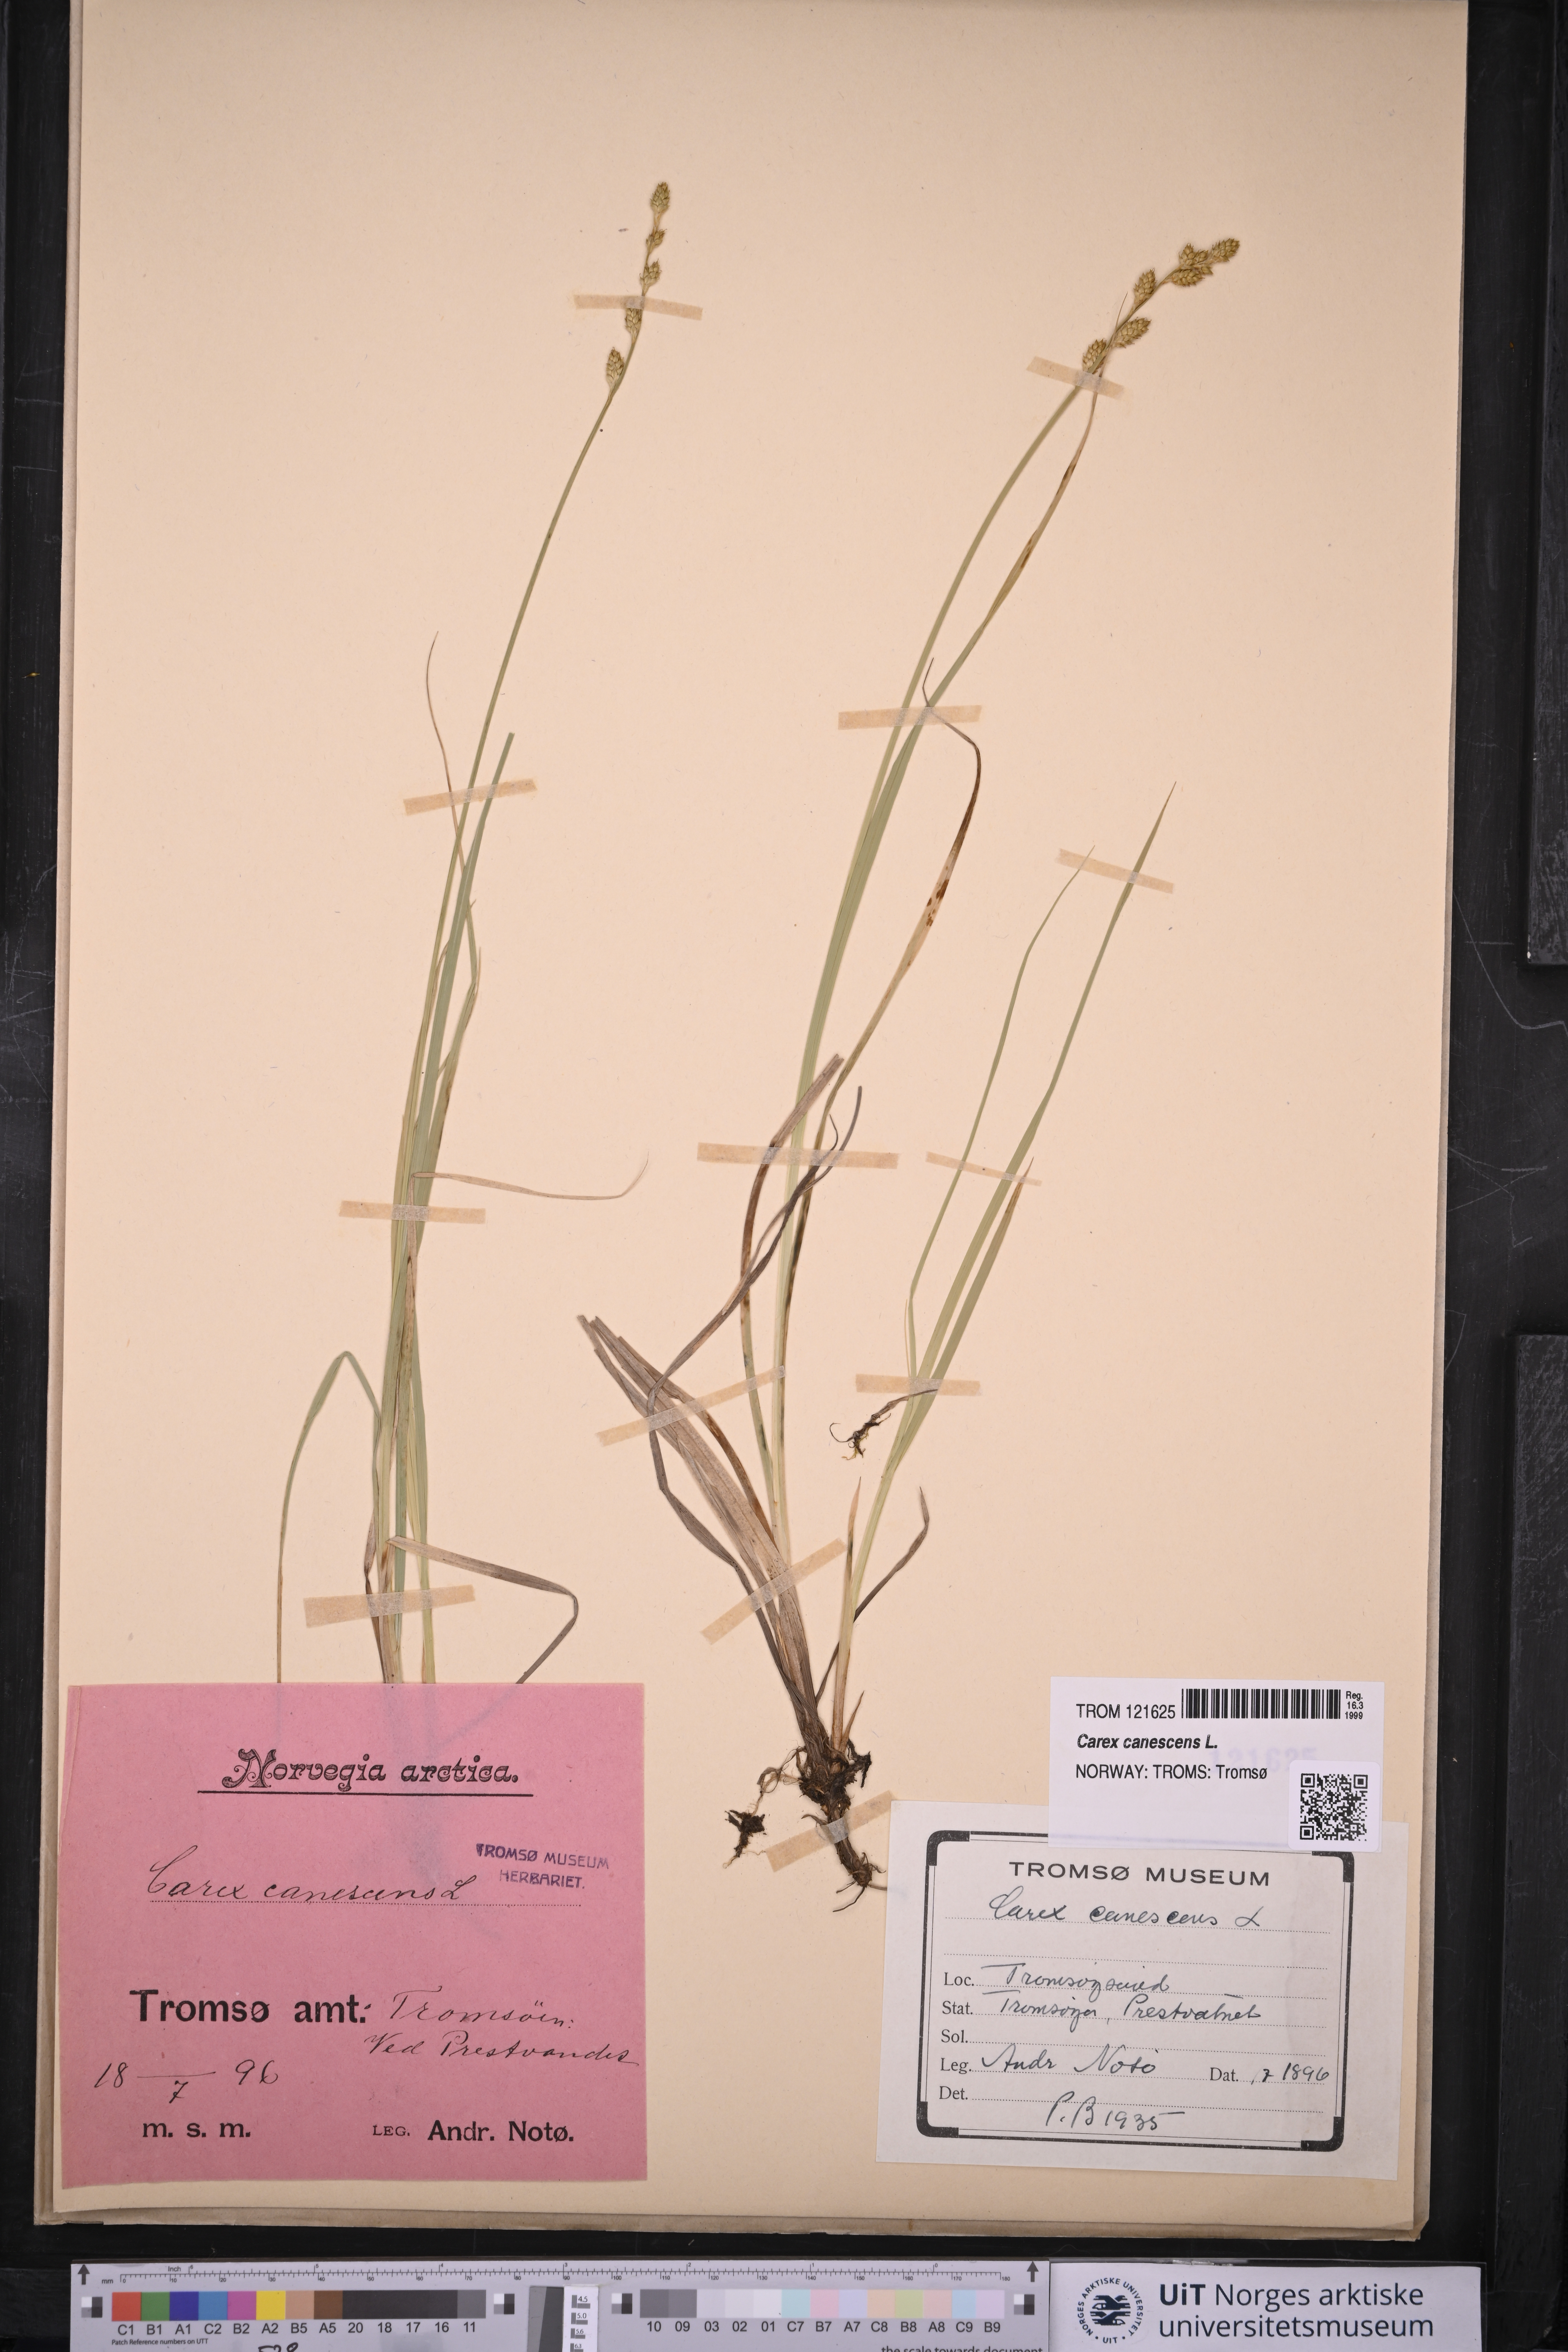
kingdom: Plantae
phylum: Tracheophyta
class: Liliopsida
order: Poales
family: Cyperaceae
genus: Carex
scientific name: Carex canescens
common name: White sedge
